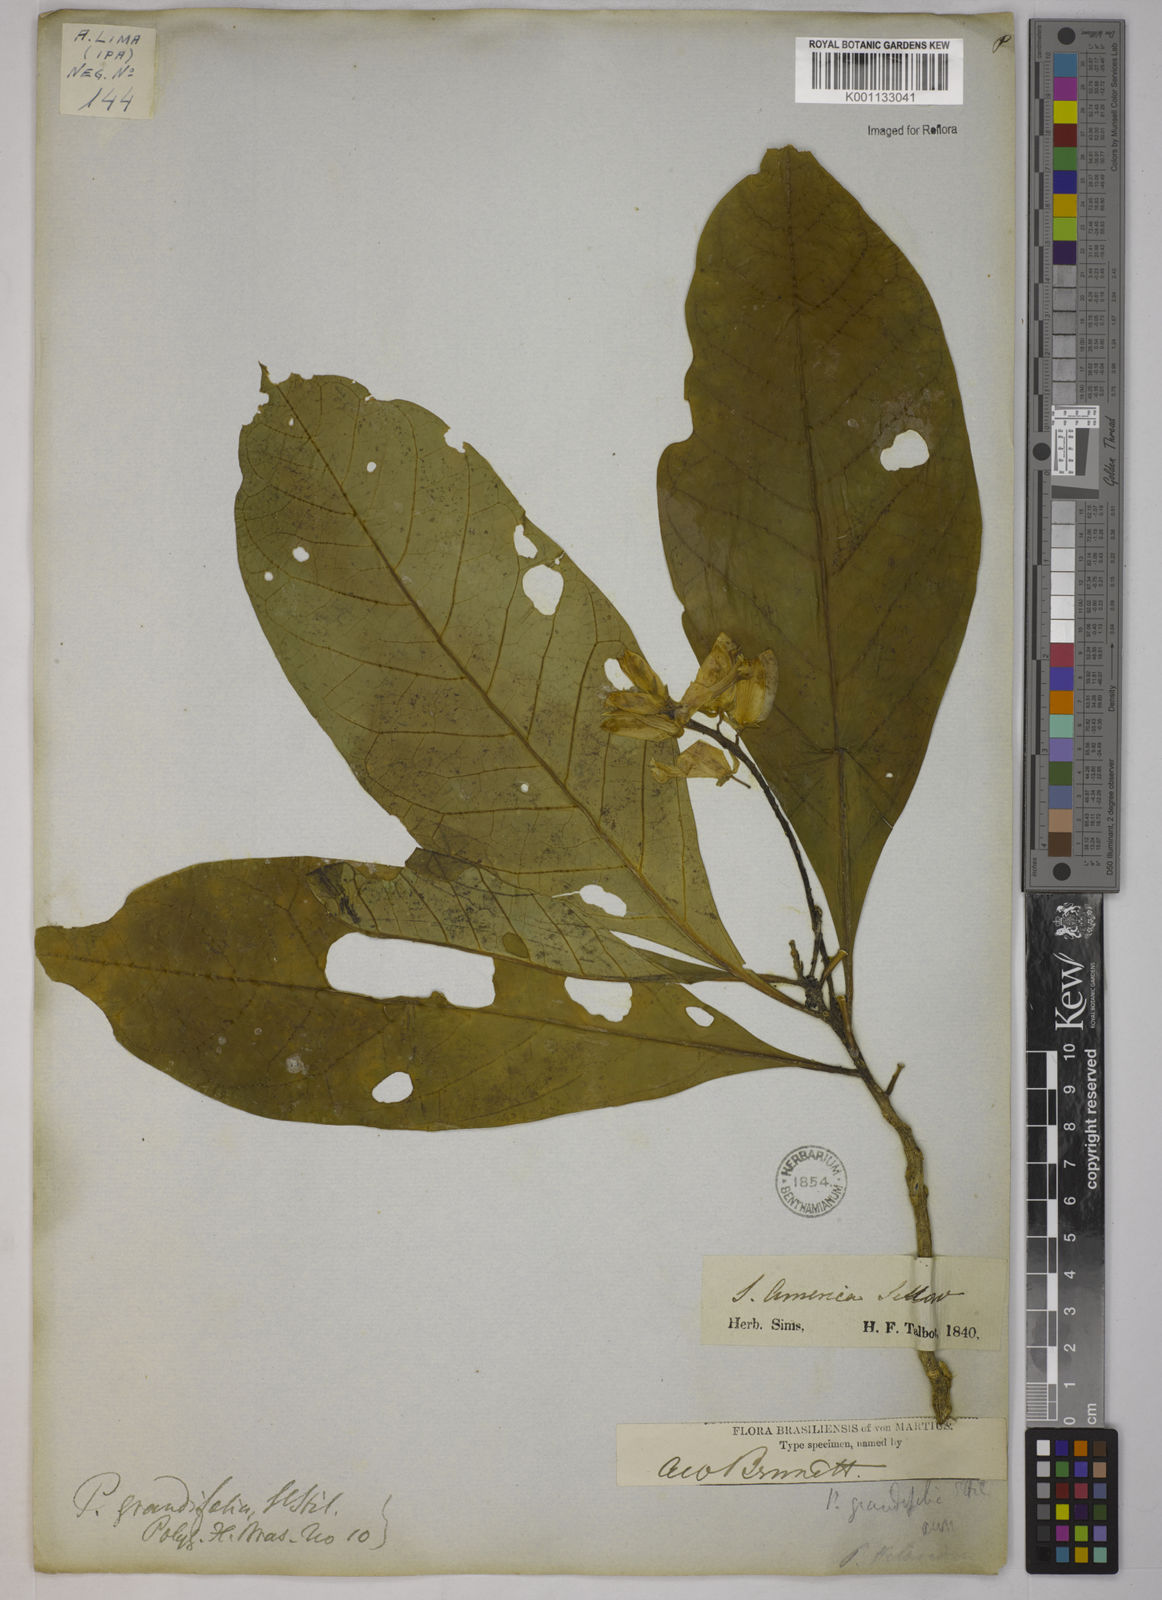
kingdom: Plantae
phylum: Tracheophyta
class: Magnoliopsida
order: Fabales
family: Polygalaceae
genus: Caamembeca
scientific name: Caamembeca grandifolia
